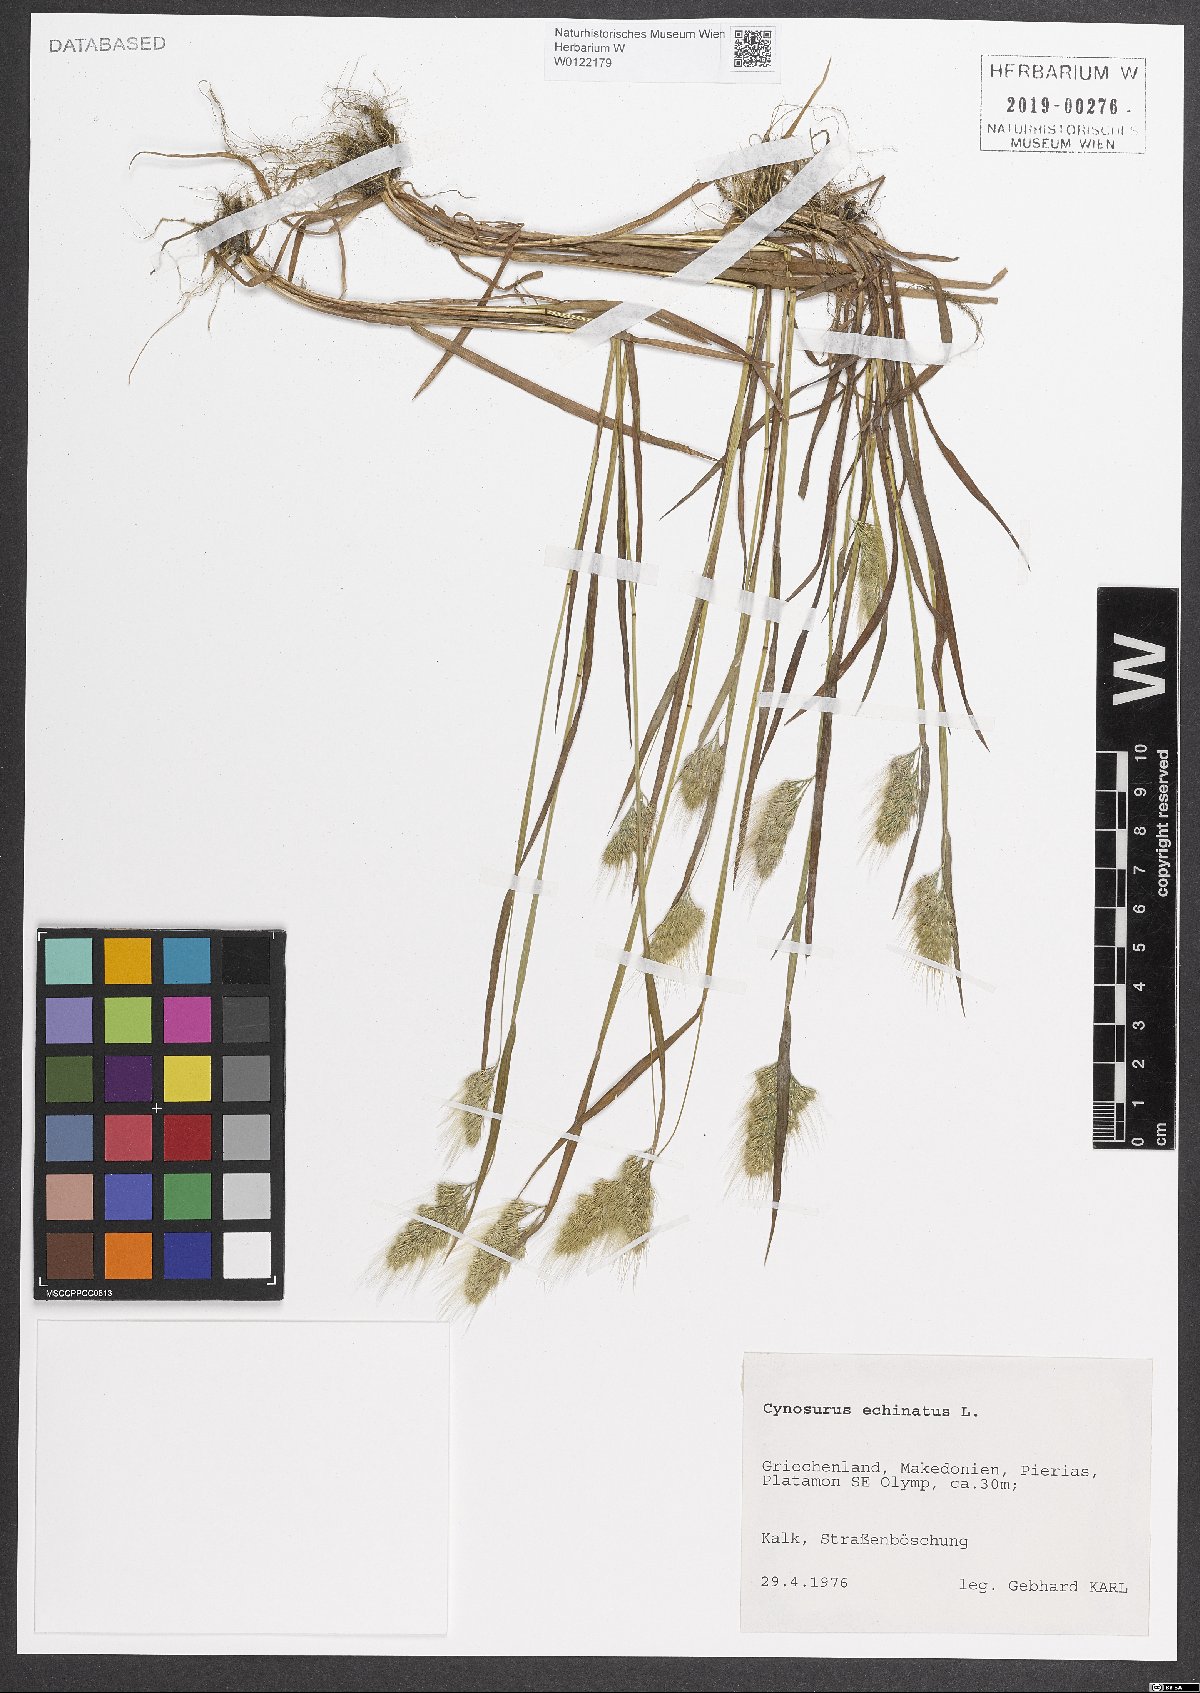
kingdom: Plantae
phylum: Tracheophyta
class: Liliopsida
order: Poales
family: Poaceae
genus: Cynosurus
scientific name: Cynosurus echinatus
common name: Rough dog's-tail
